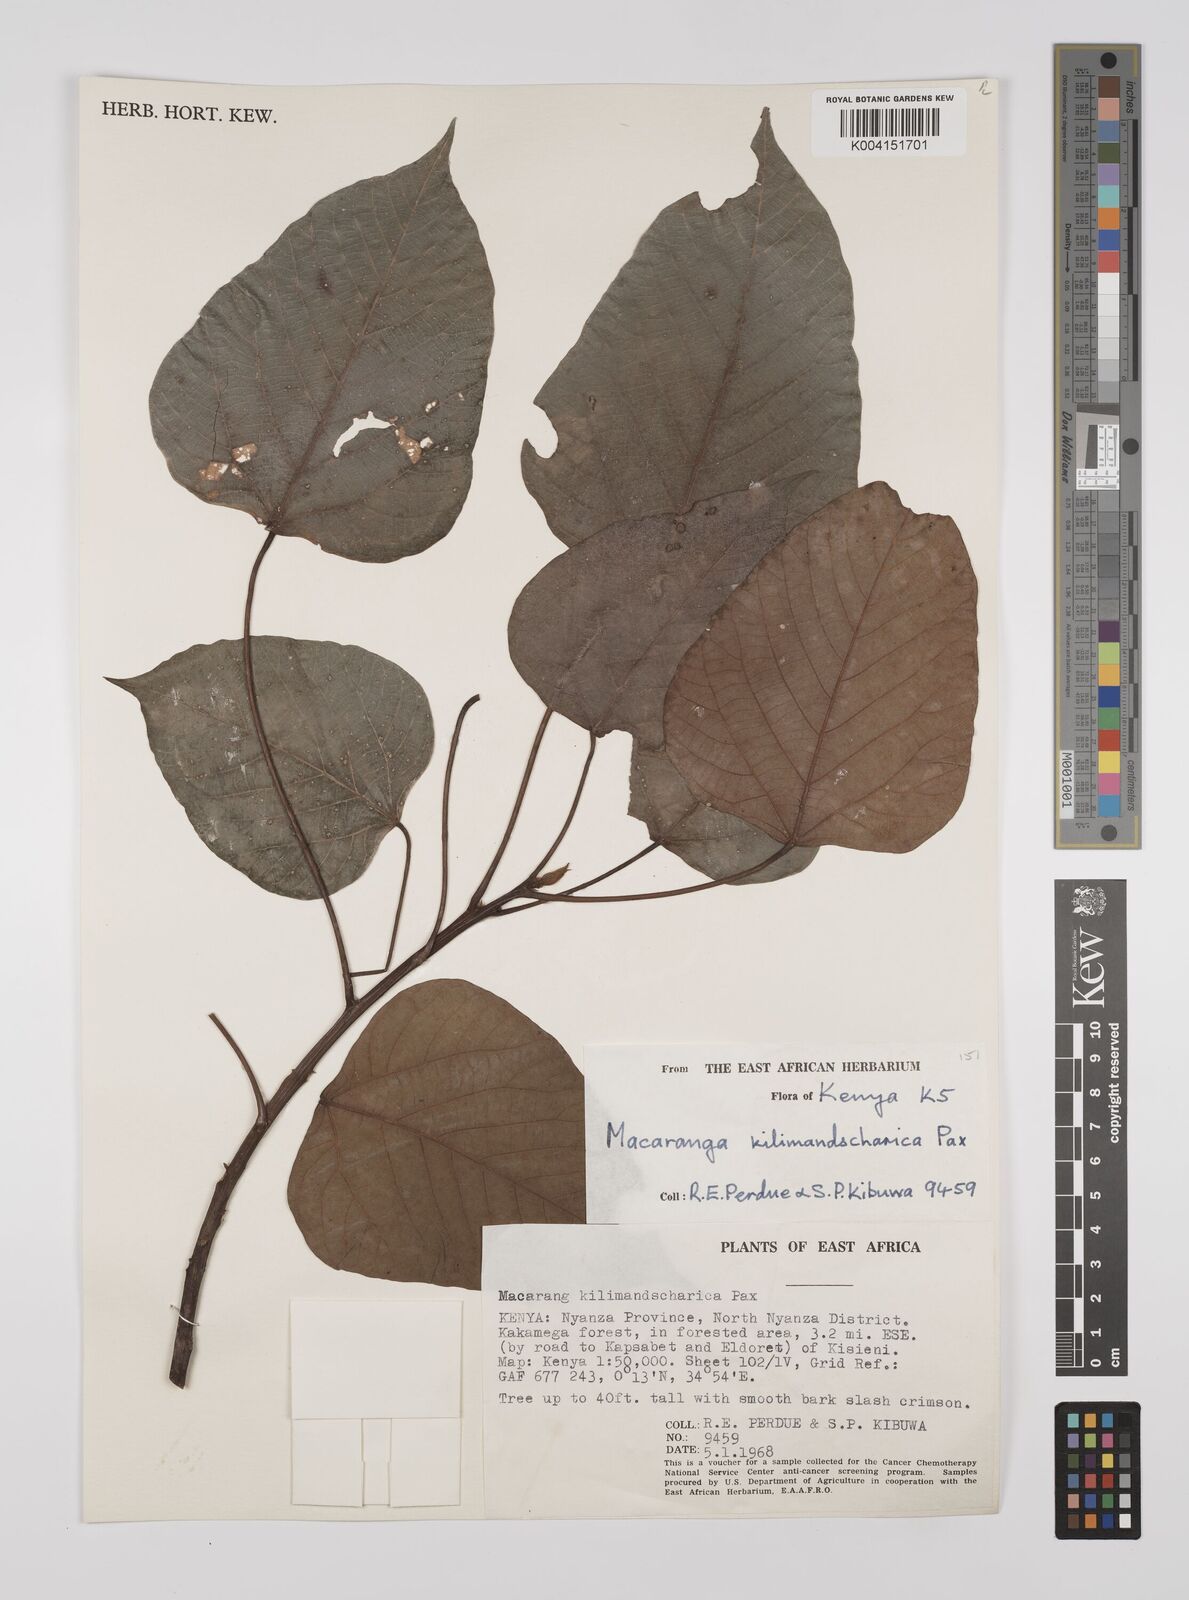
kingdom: Plantae
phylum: Tracheophyta
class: Magnoliopsida
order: Malpighiales
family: Euphorbiaceae
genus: Macaranga
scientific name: Macaranga kilimandscharica
